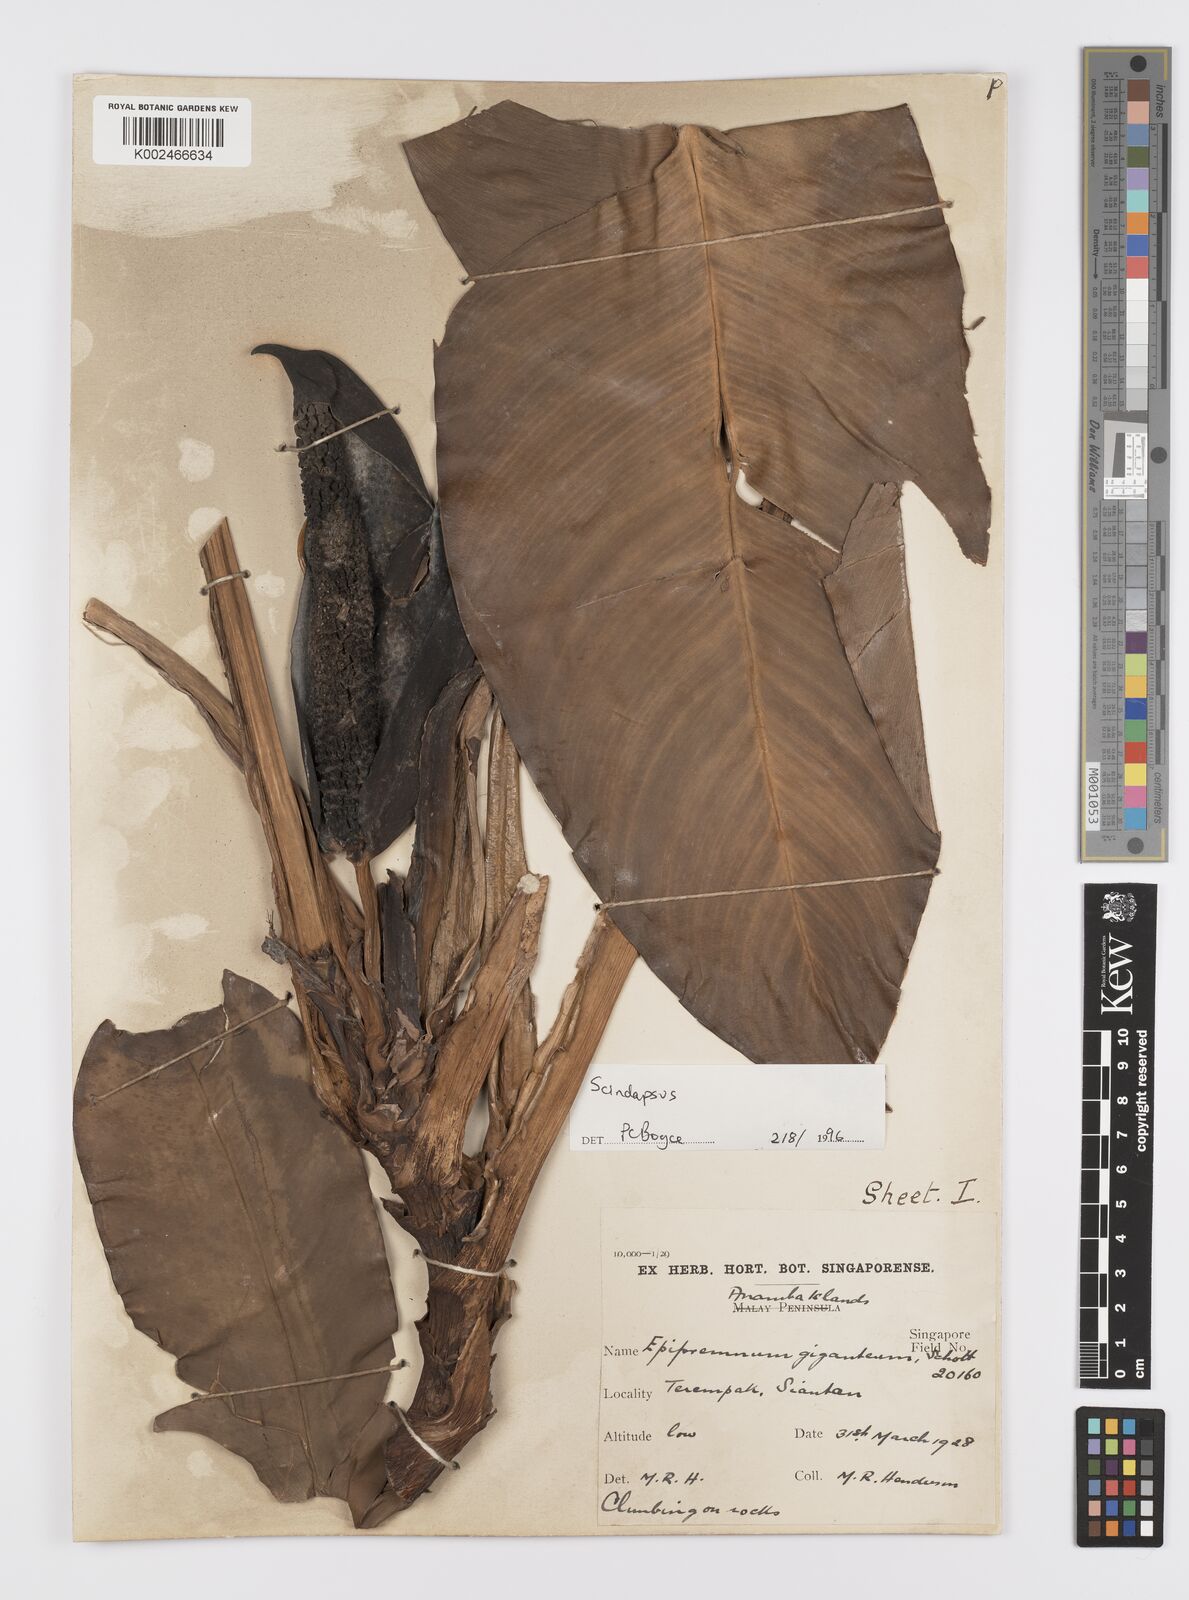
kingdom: Plantae
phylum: Tracheophyta
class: Liliopsida
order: Alismatales
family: Araceae
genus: Scindapsus
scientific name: Scindapsus
